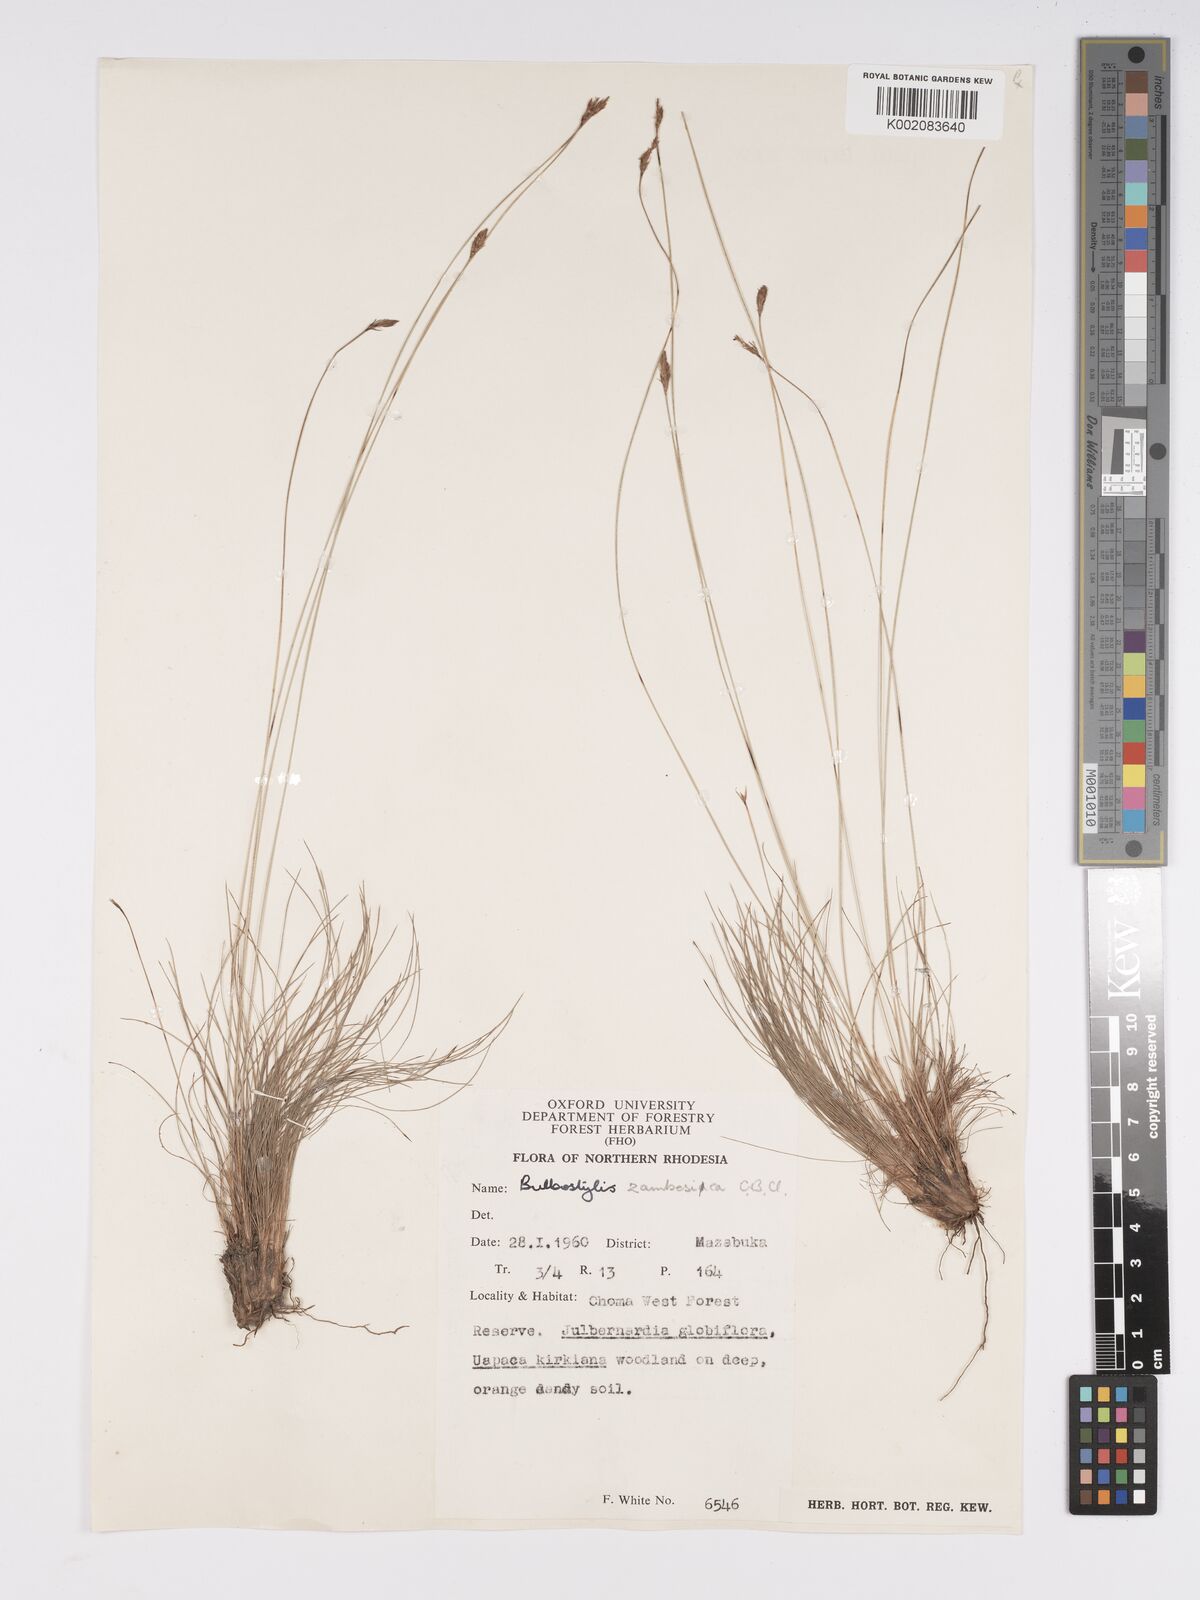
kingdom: Plantae
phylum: Tracheophyta
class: Liliopsida
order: Poales
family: Cyperaceae
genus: Bulbostylis
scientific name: Bulbostylis macra
